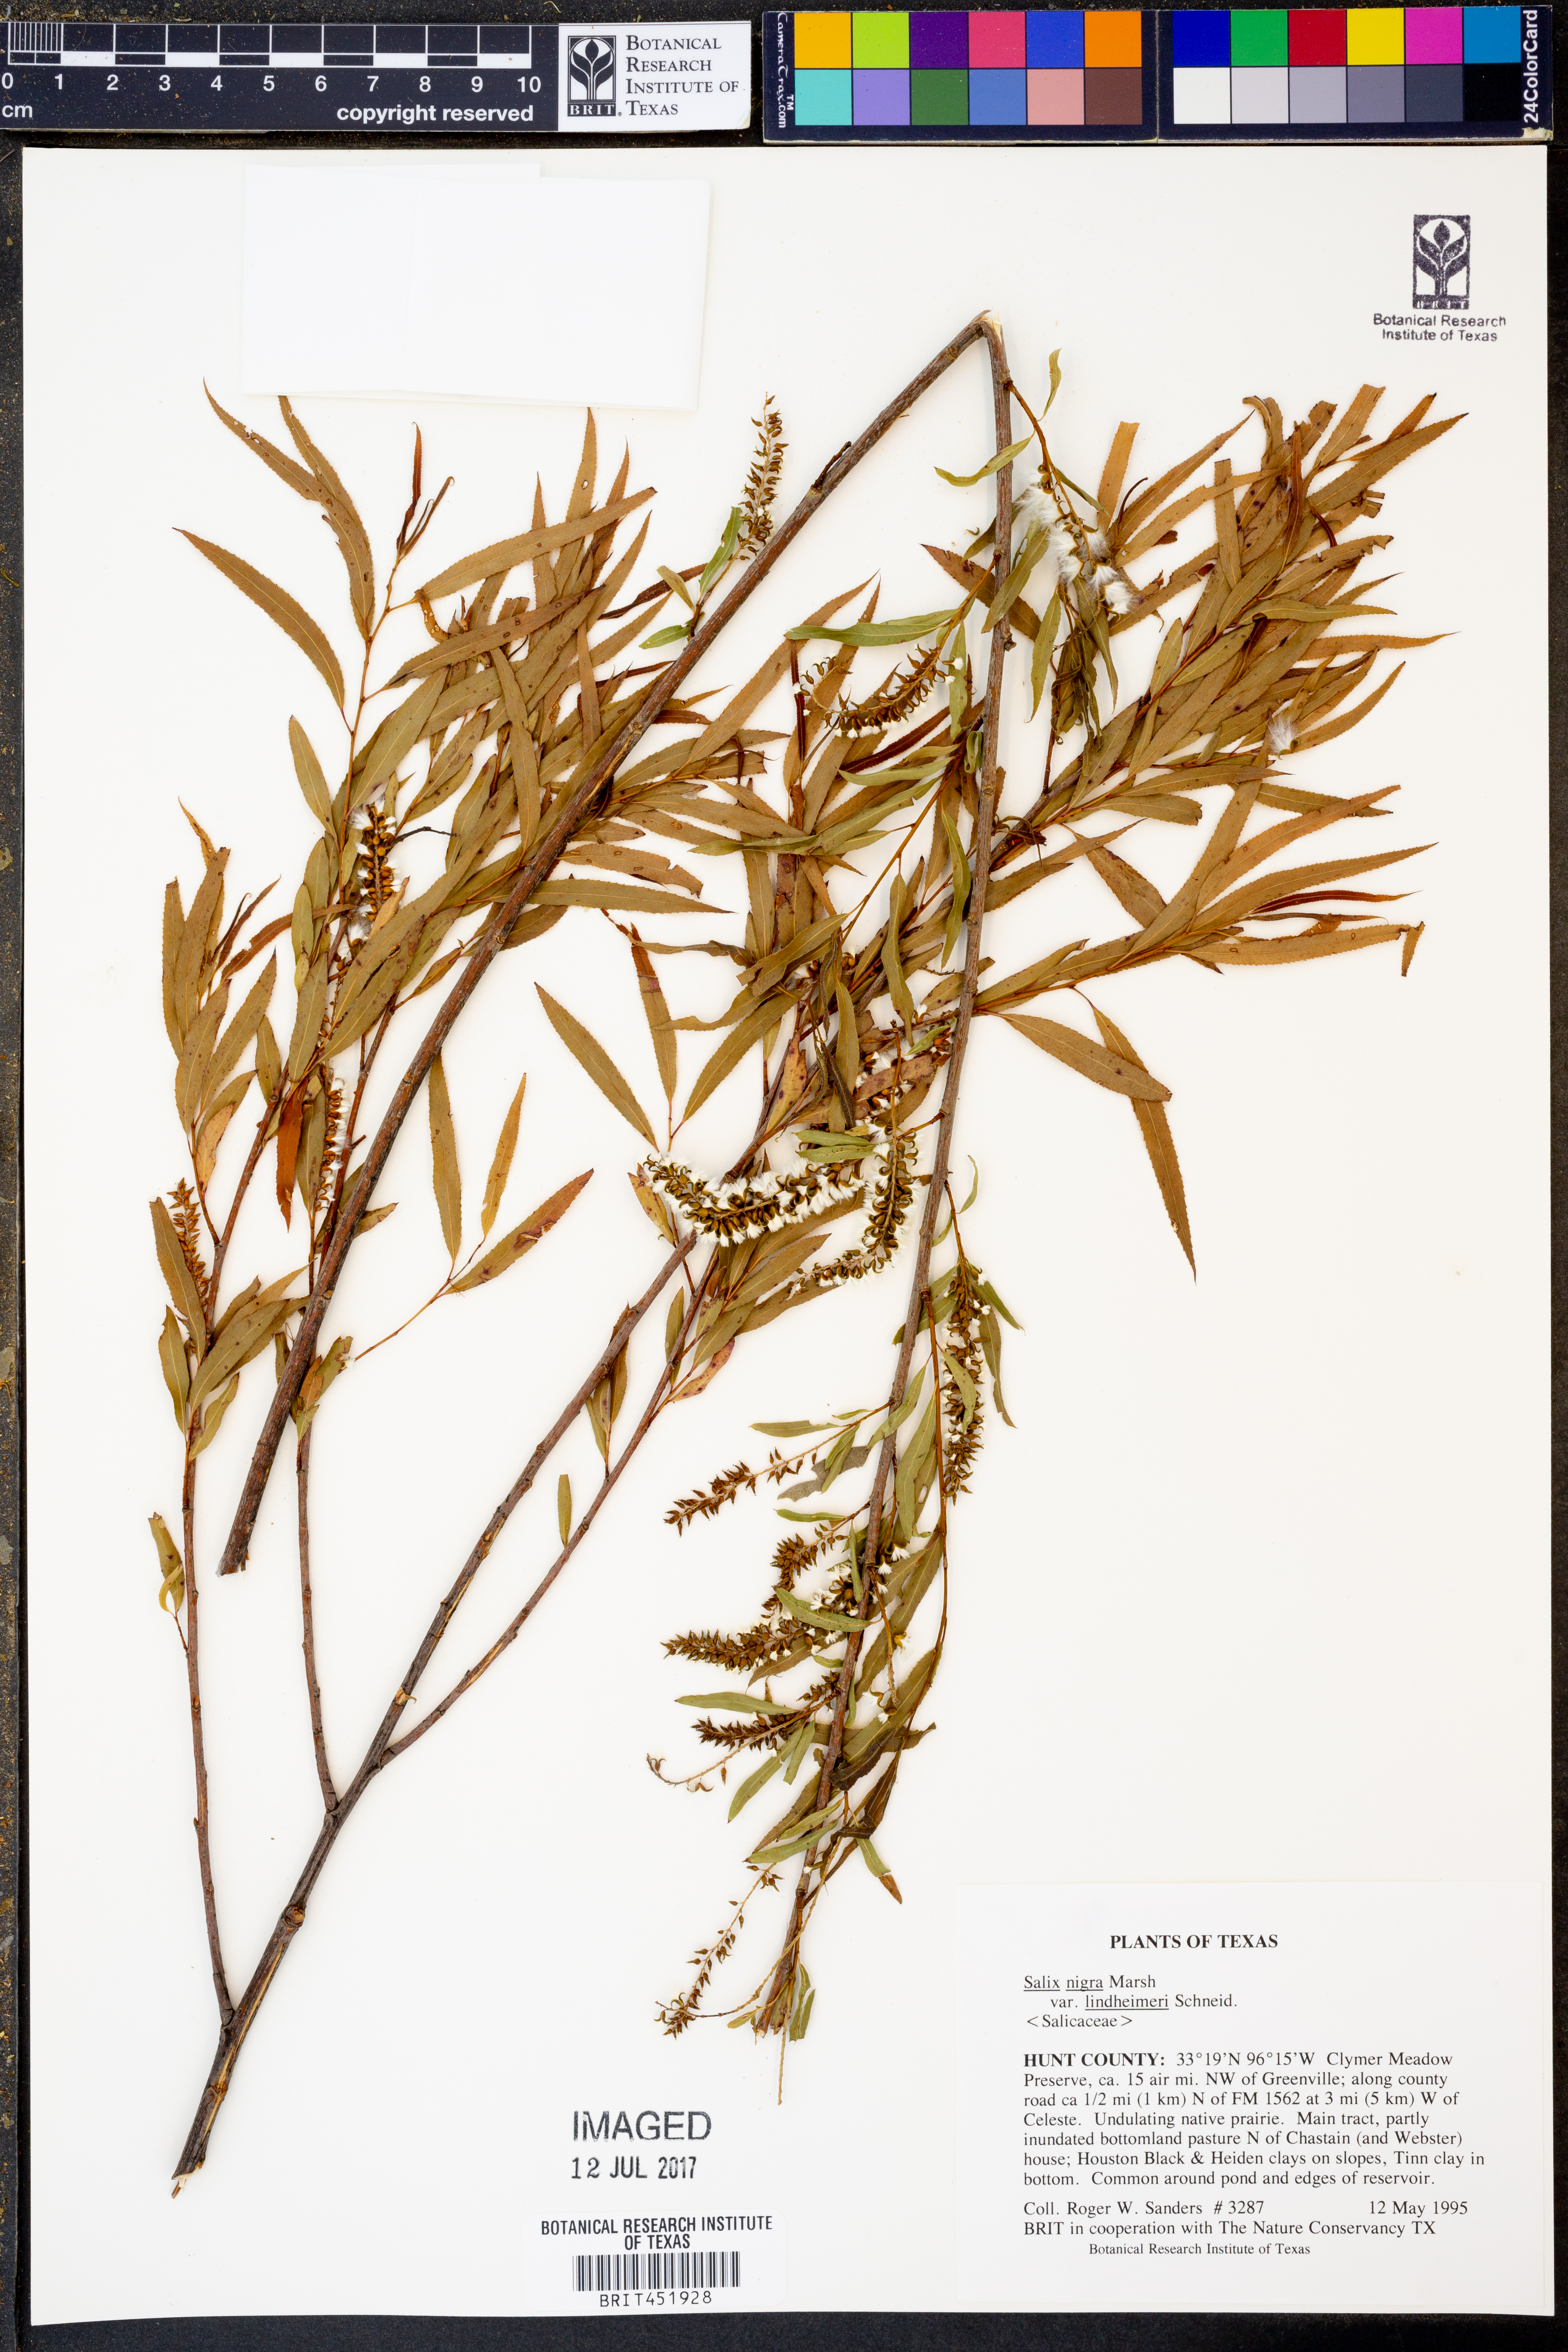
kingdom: Plantae
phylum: Tracheophyta
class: Magnoliopsida
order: Malpighiales
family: Salicaceae
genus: Salix
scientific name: Salix nigra
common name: Black willow
